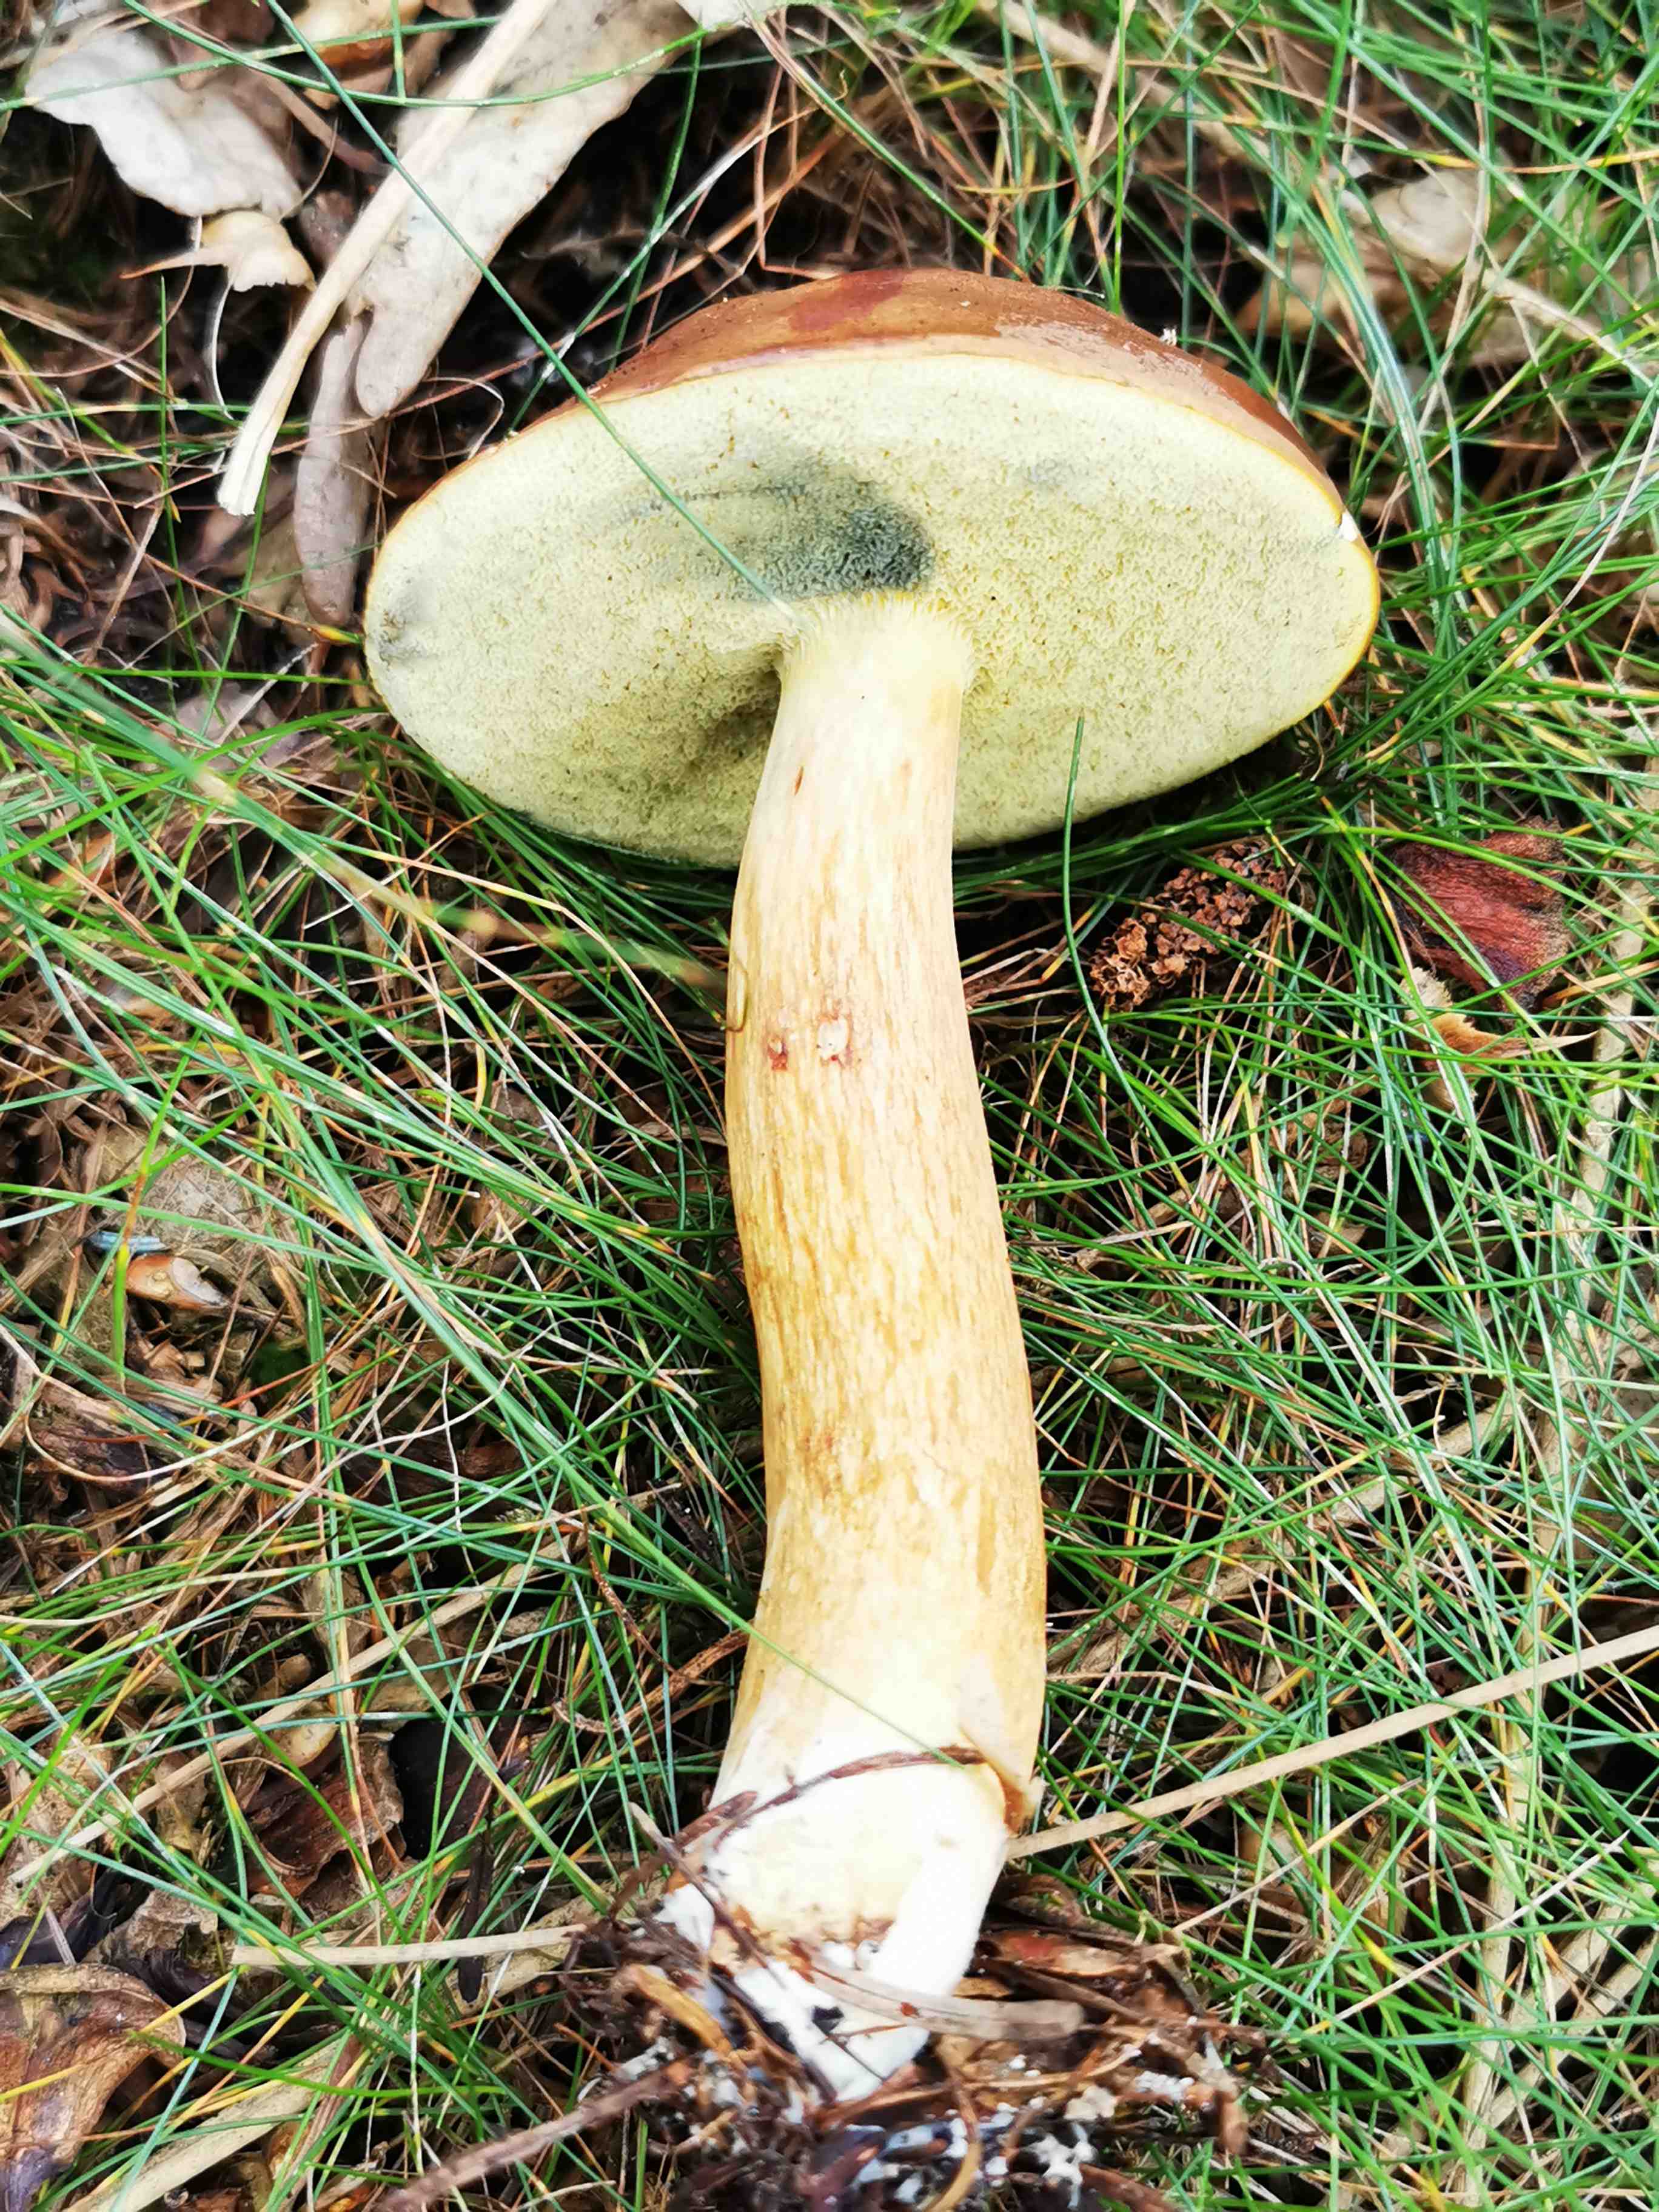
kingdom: Fungi
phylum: Basidiomycota
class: Agaricomycetes
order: Boletales
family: Boletaceae
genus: Imleria
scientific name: Imleria badia
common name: brunstokket rørhat
